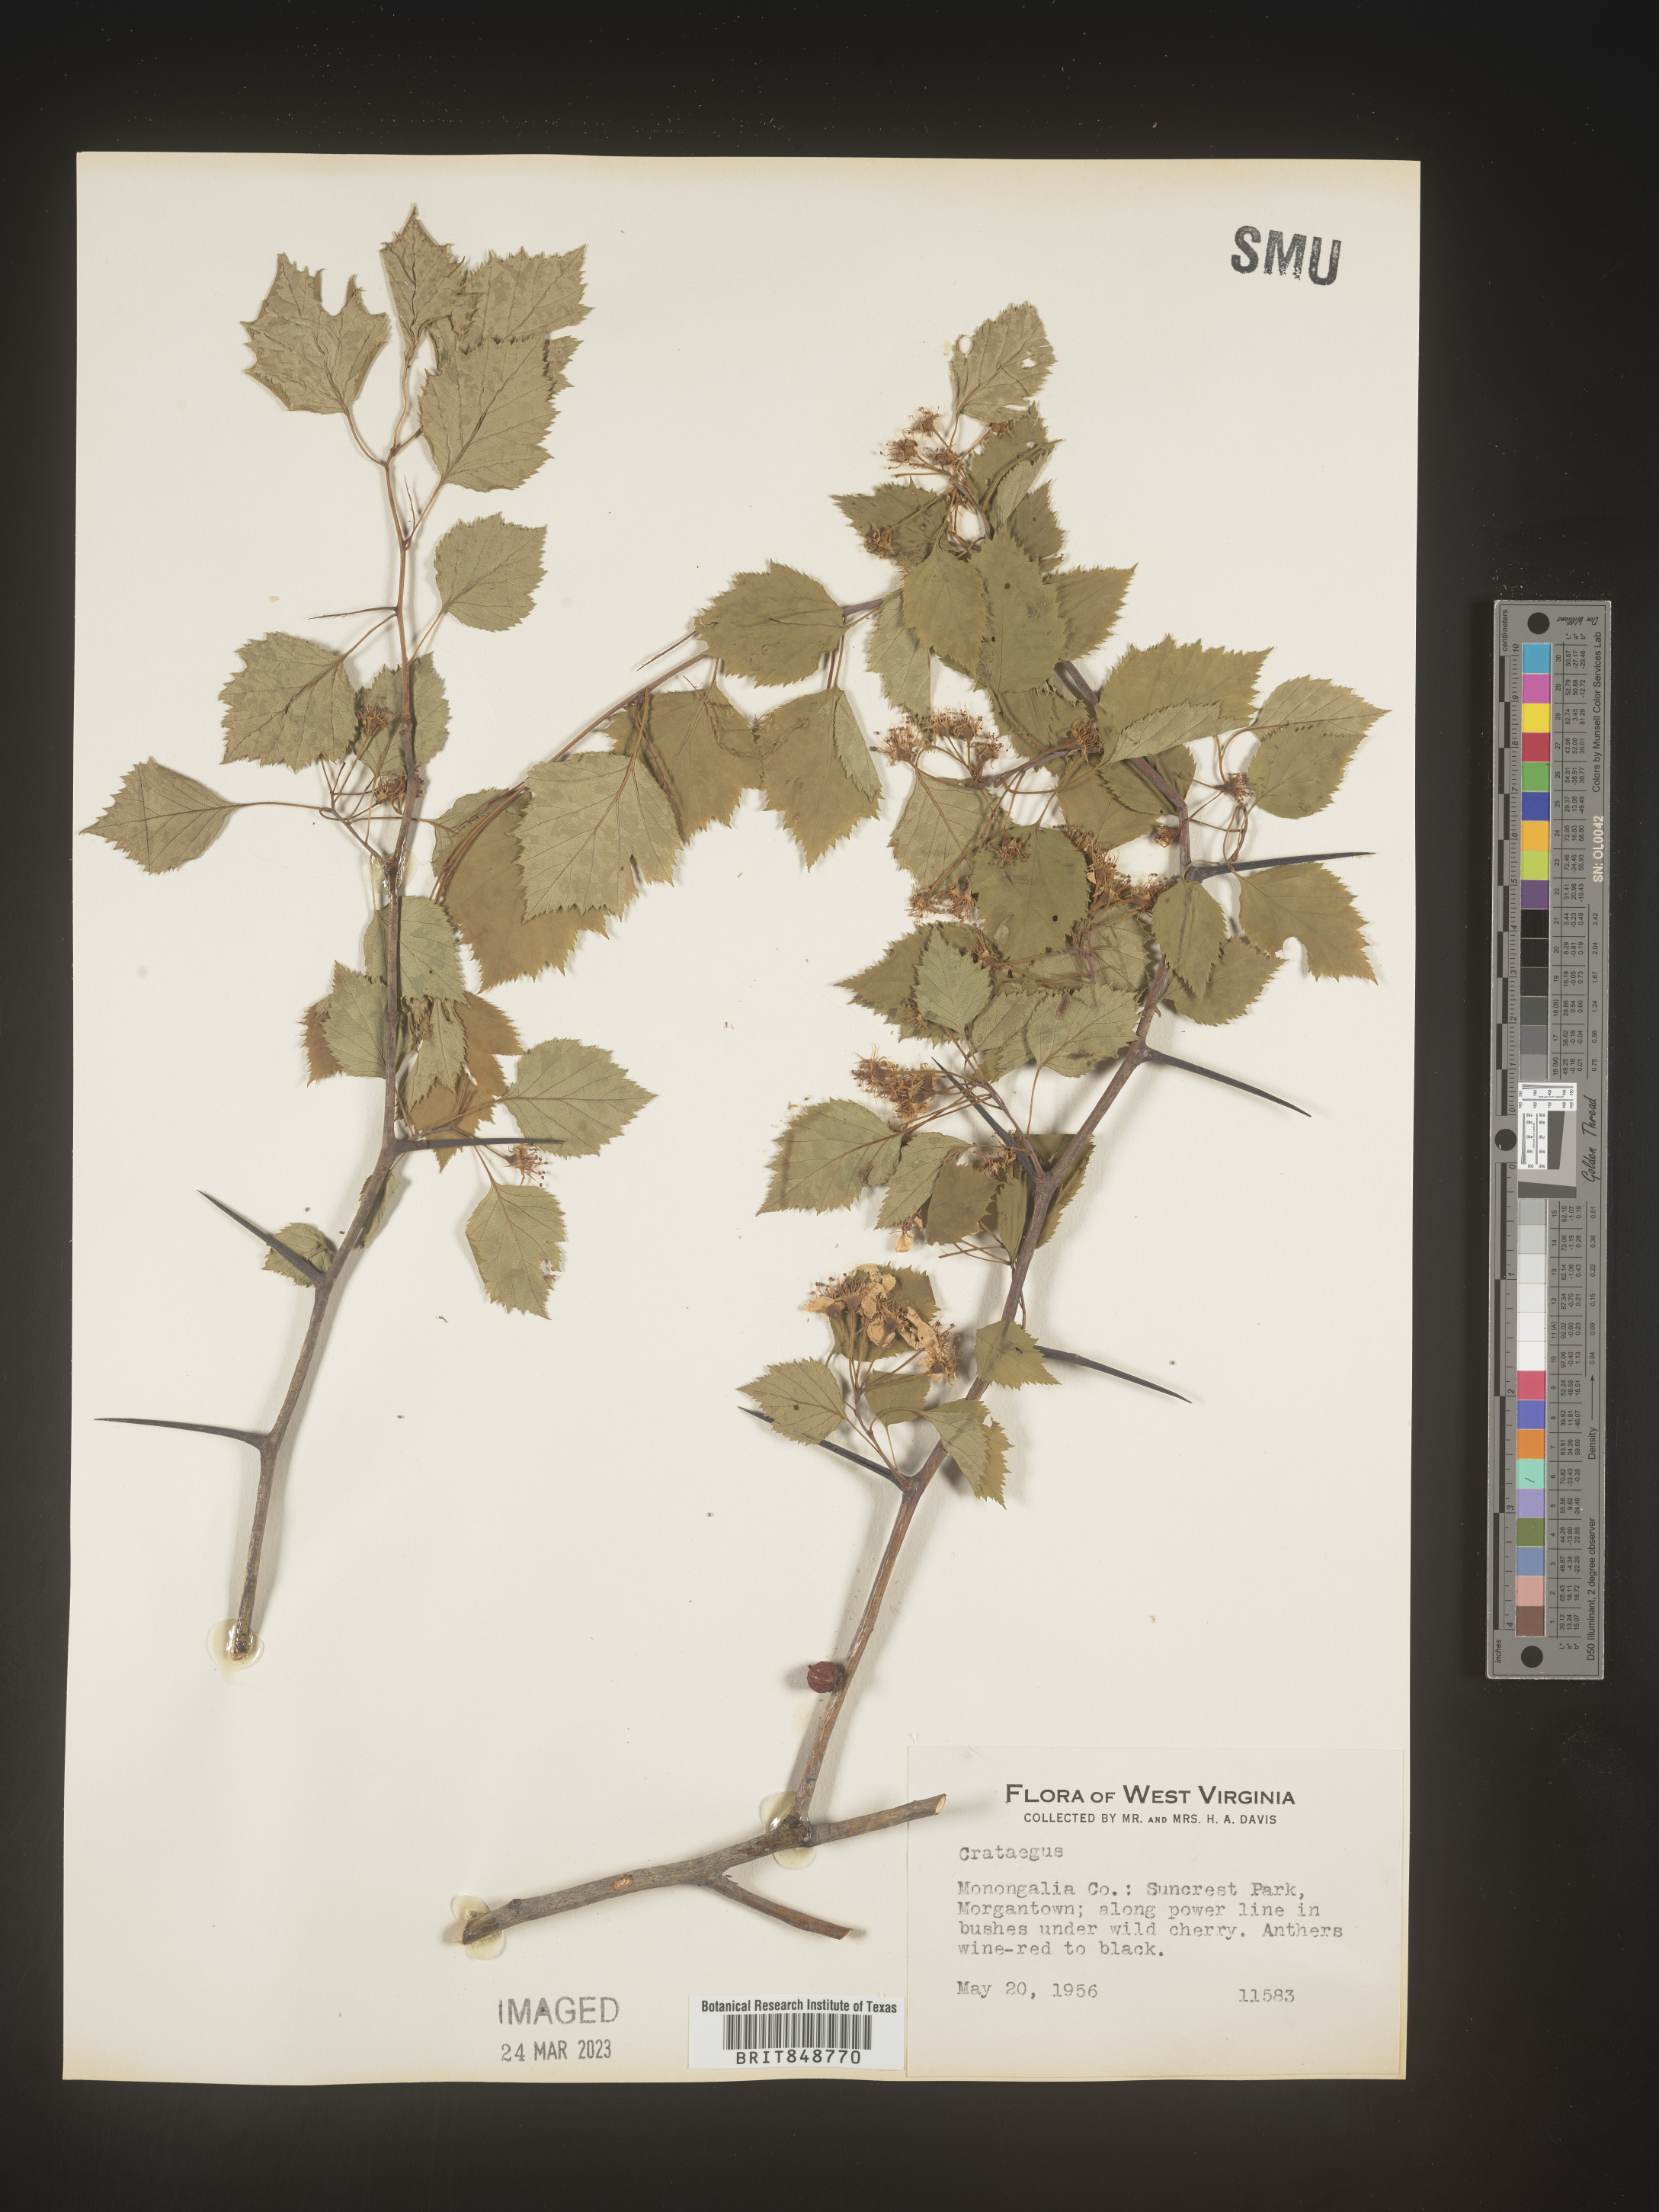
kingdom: Plantae
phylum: Tracheophyta
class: Magnoliopsida
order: Rosales
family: Rosaceae
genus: Crataegus
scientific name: Crataegus
